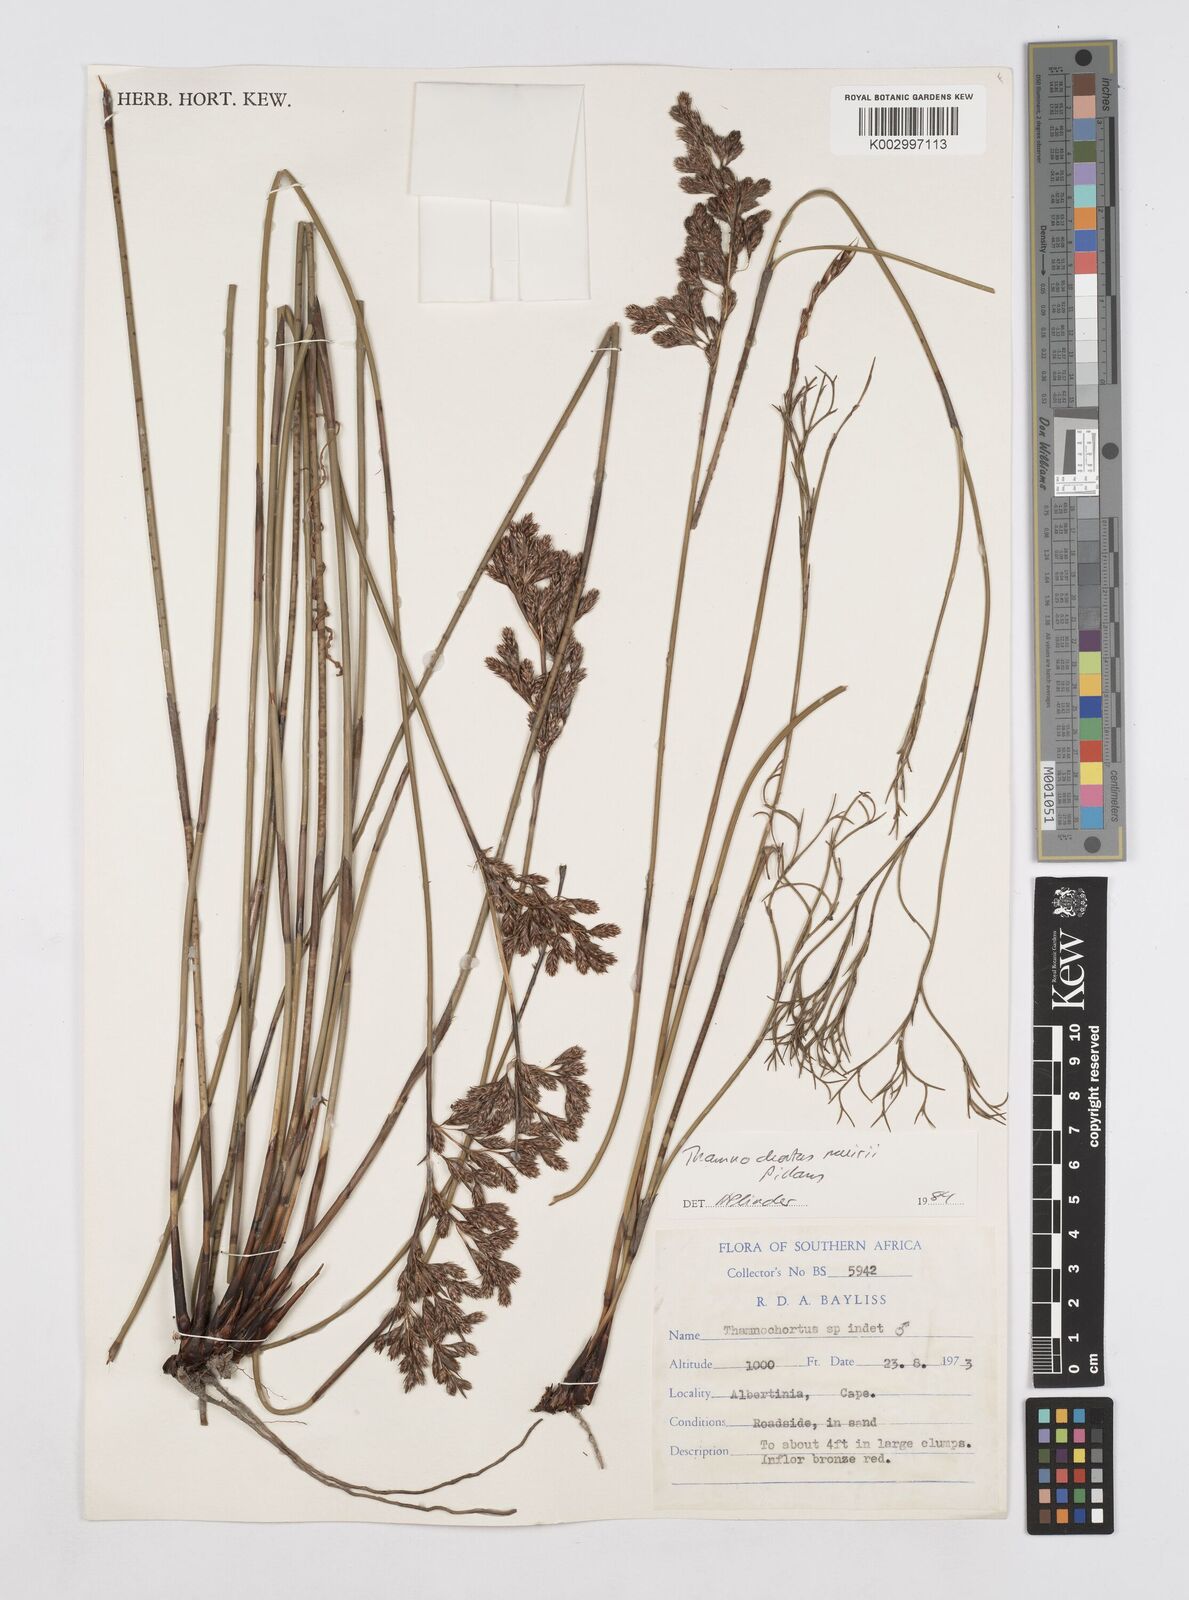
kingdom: Plantae
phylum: Tracheophyta
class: Liliopsida
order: Poales
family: Restionaceae
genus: Thamnochortus
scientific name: Thamnochortus muirii
